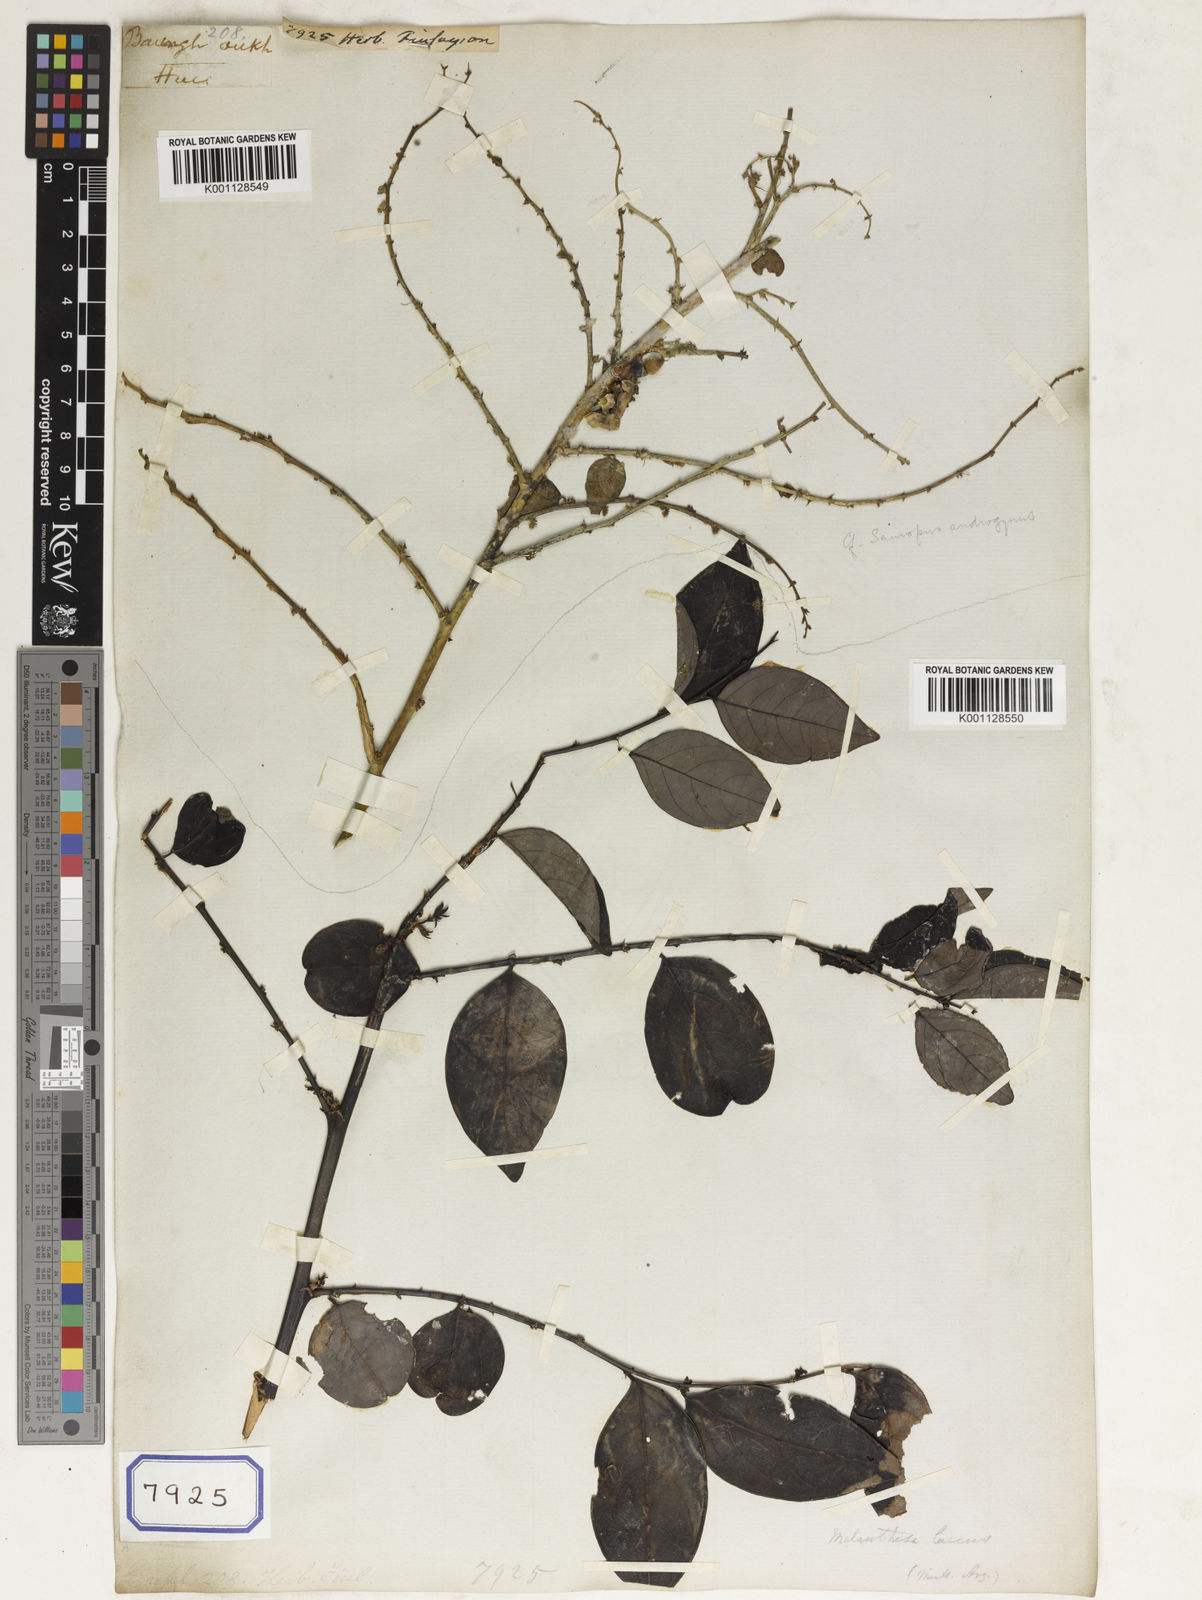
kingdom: Plantae
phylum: Tracheophyta
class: Magnoliopsida
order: Malpighiales
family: Euphorbiaceae
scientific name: Euphorbiaceae
